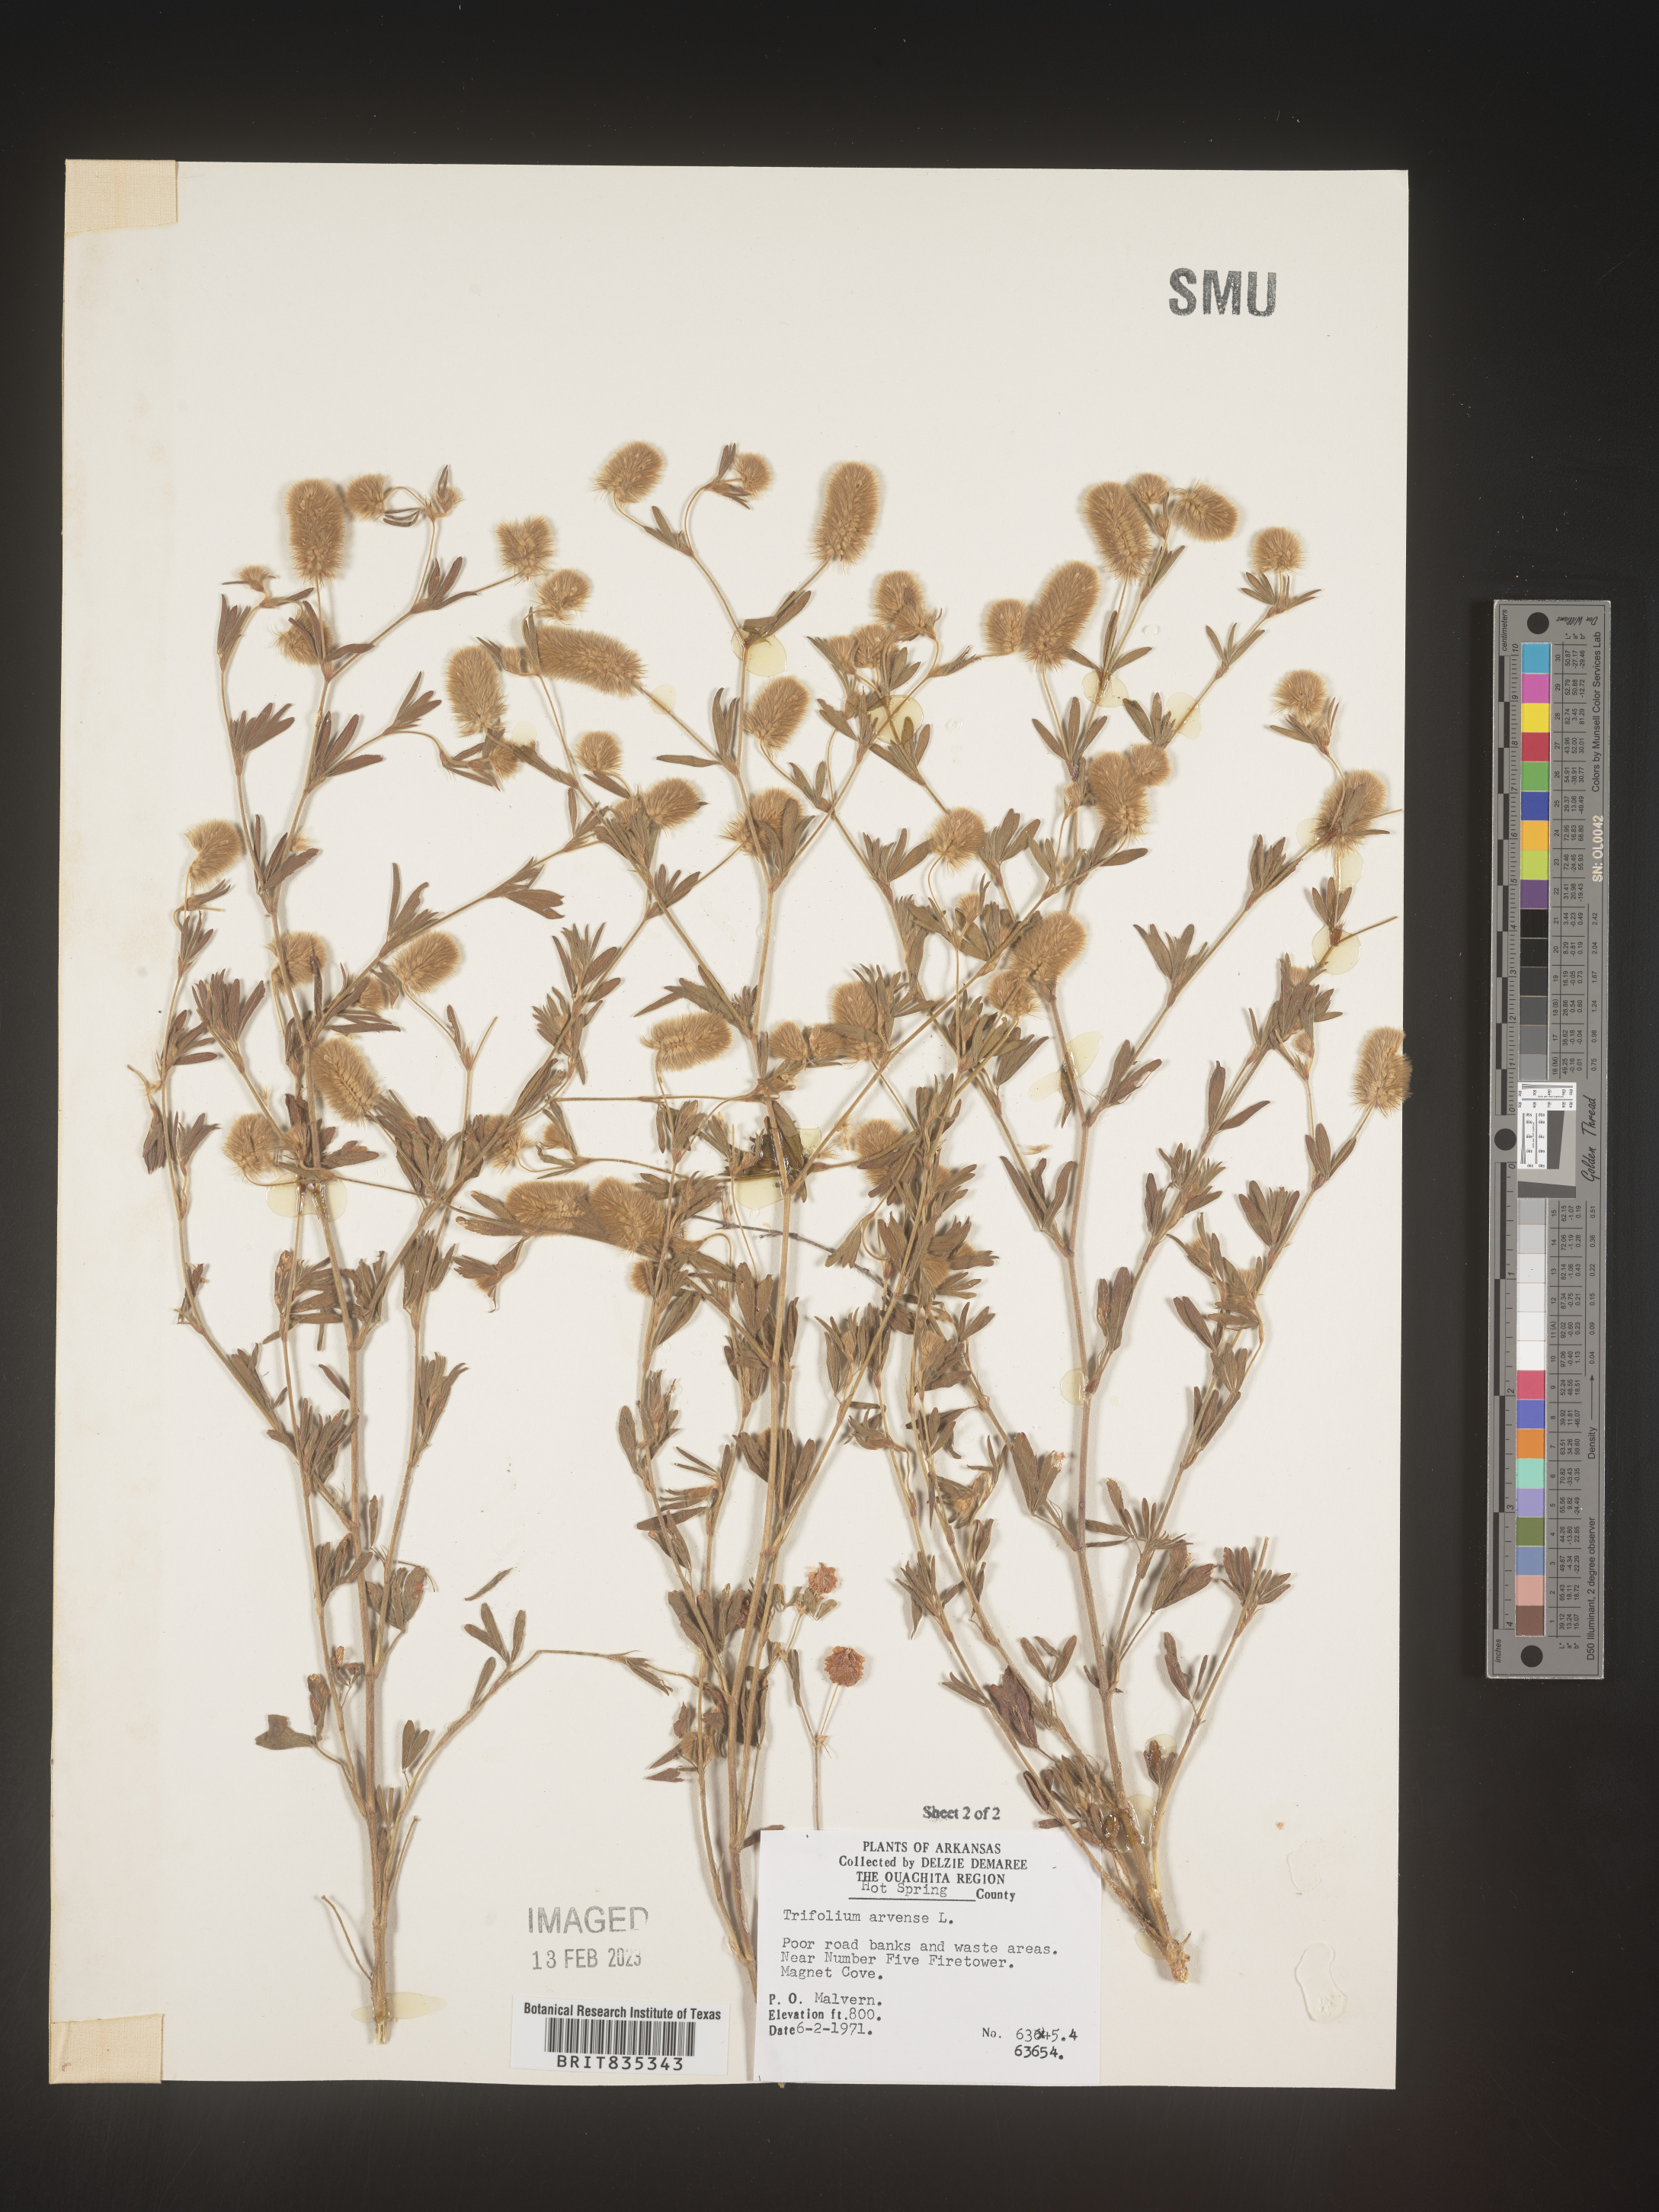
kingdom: Plantae
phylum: Tracheophyta
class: Magnoliopsida
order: Fabales
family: Fabaceae
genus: Trifolium
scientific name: Trifolium arvense
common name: Hare's-foot clover
